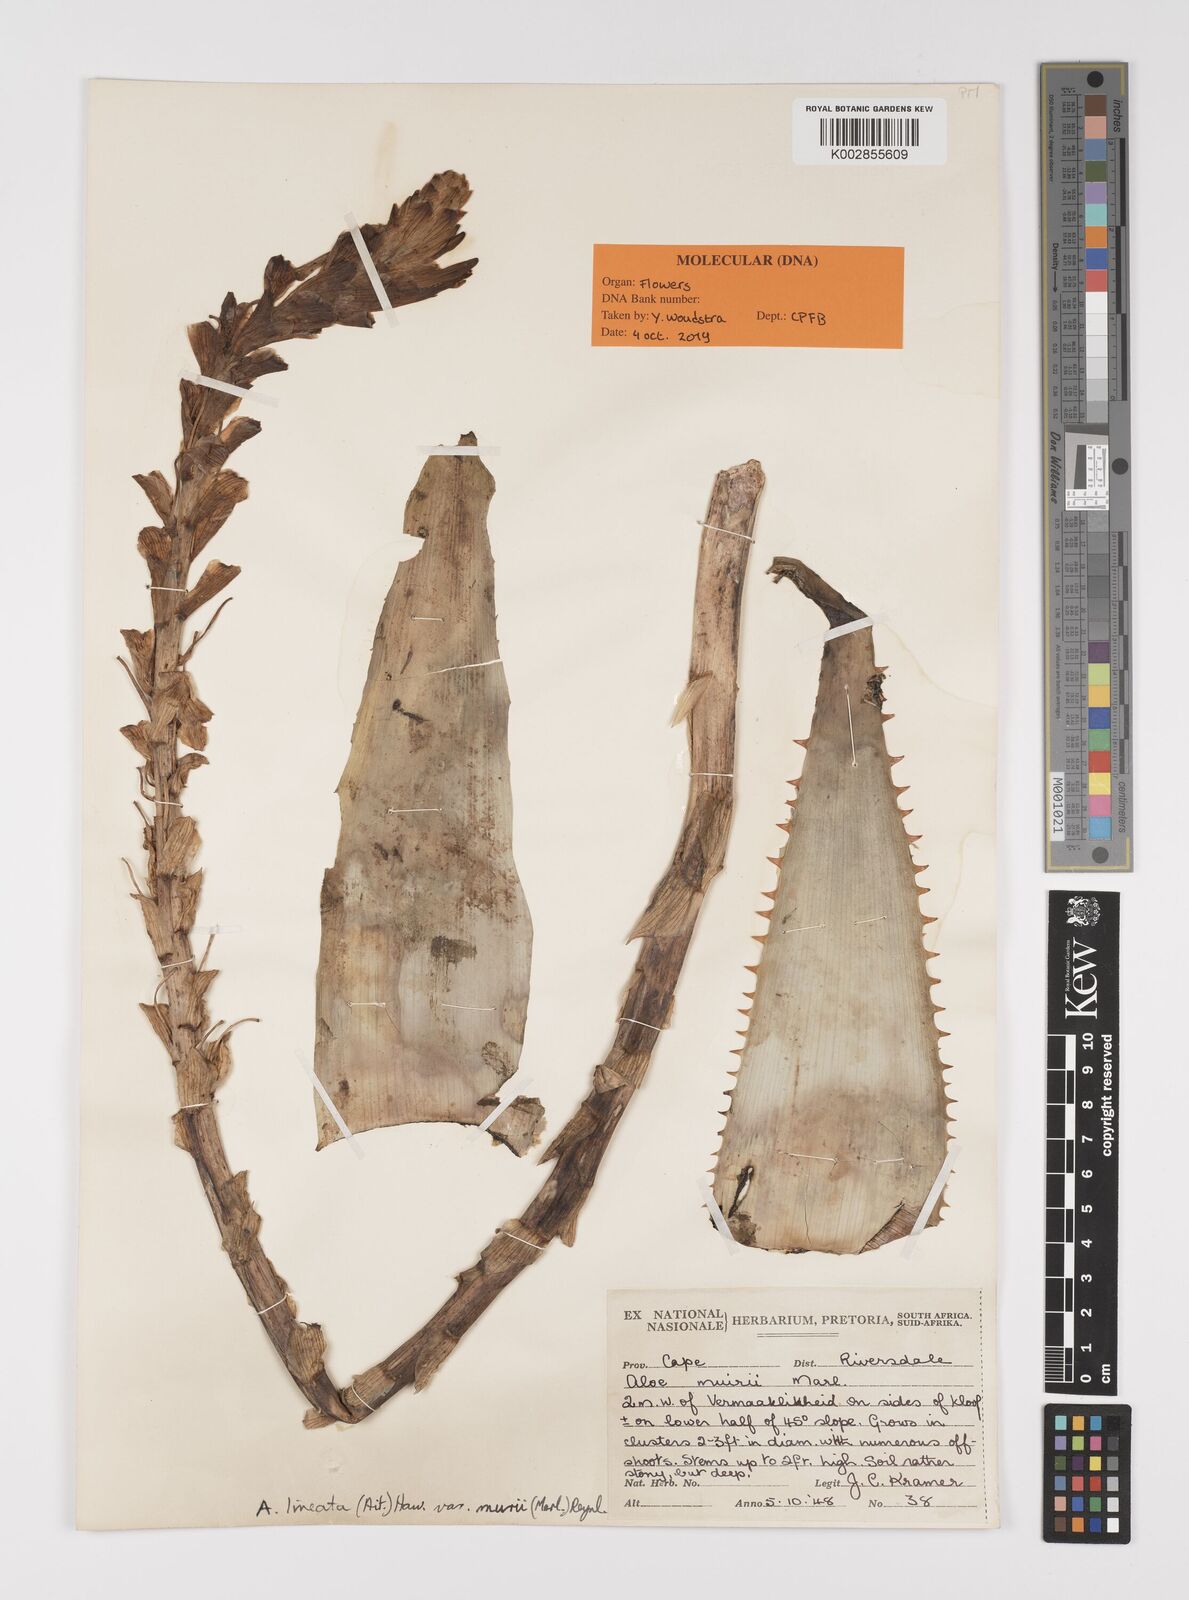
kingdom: Plantae
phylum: Tracheophyta
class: Liliopsida
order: Asparagales
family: Asphodelaceae
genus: Aloe
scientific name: Aloe lineata
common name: Lined red-spined aloe
